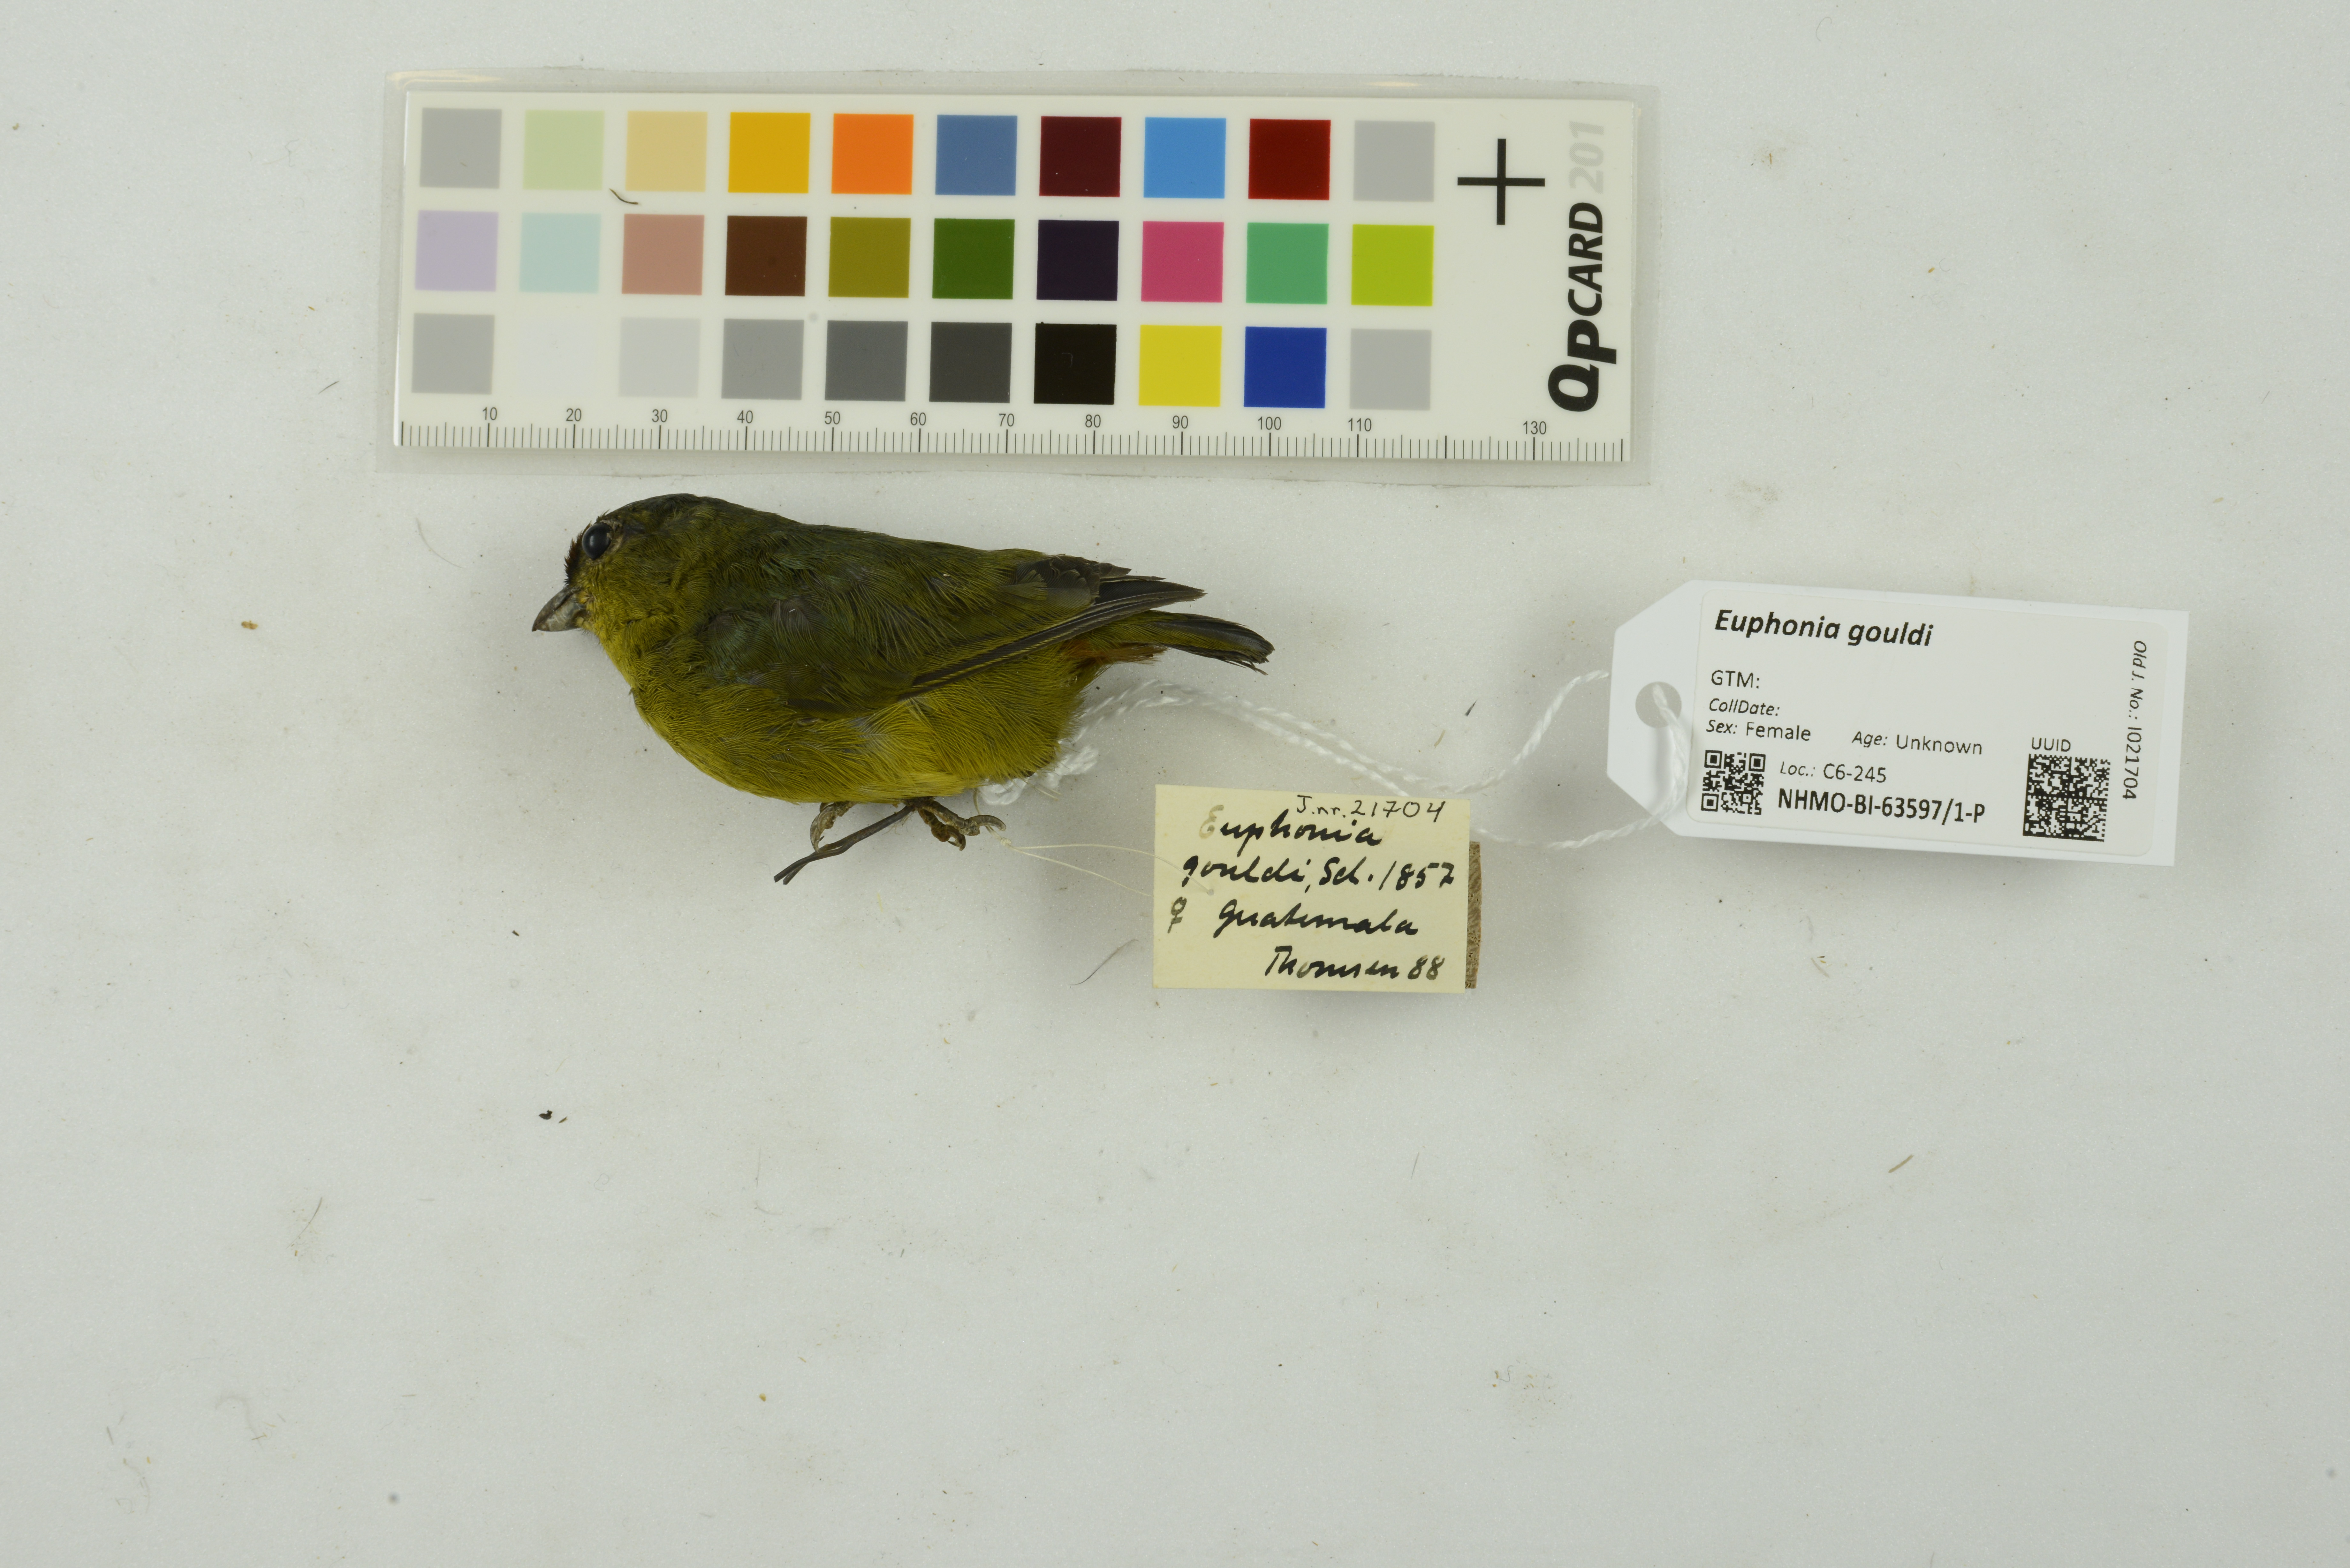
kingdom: Animalia
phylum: Chordata
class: Aves
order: Passeriformes
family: Fringillidae
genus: Euphonia
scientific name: Euphonia gouldi
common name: Olive-backed euphonia
